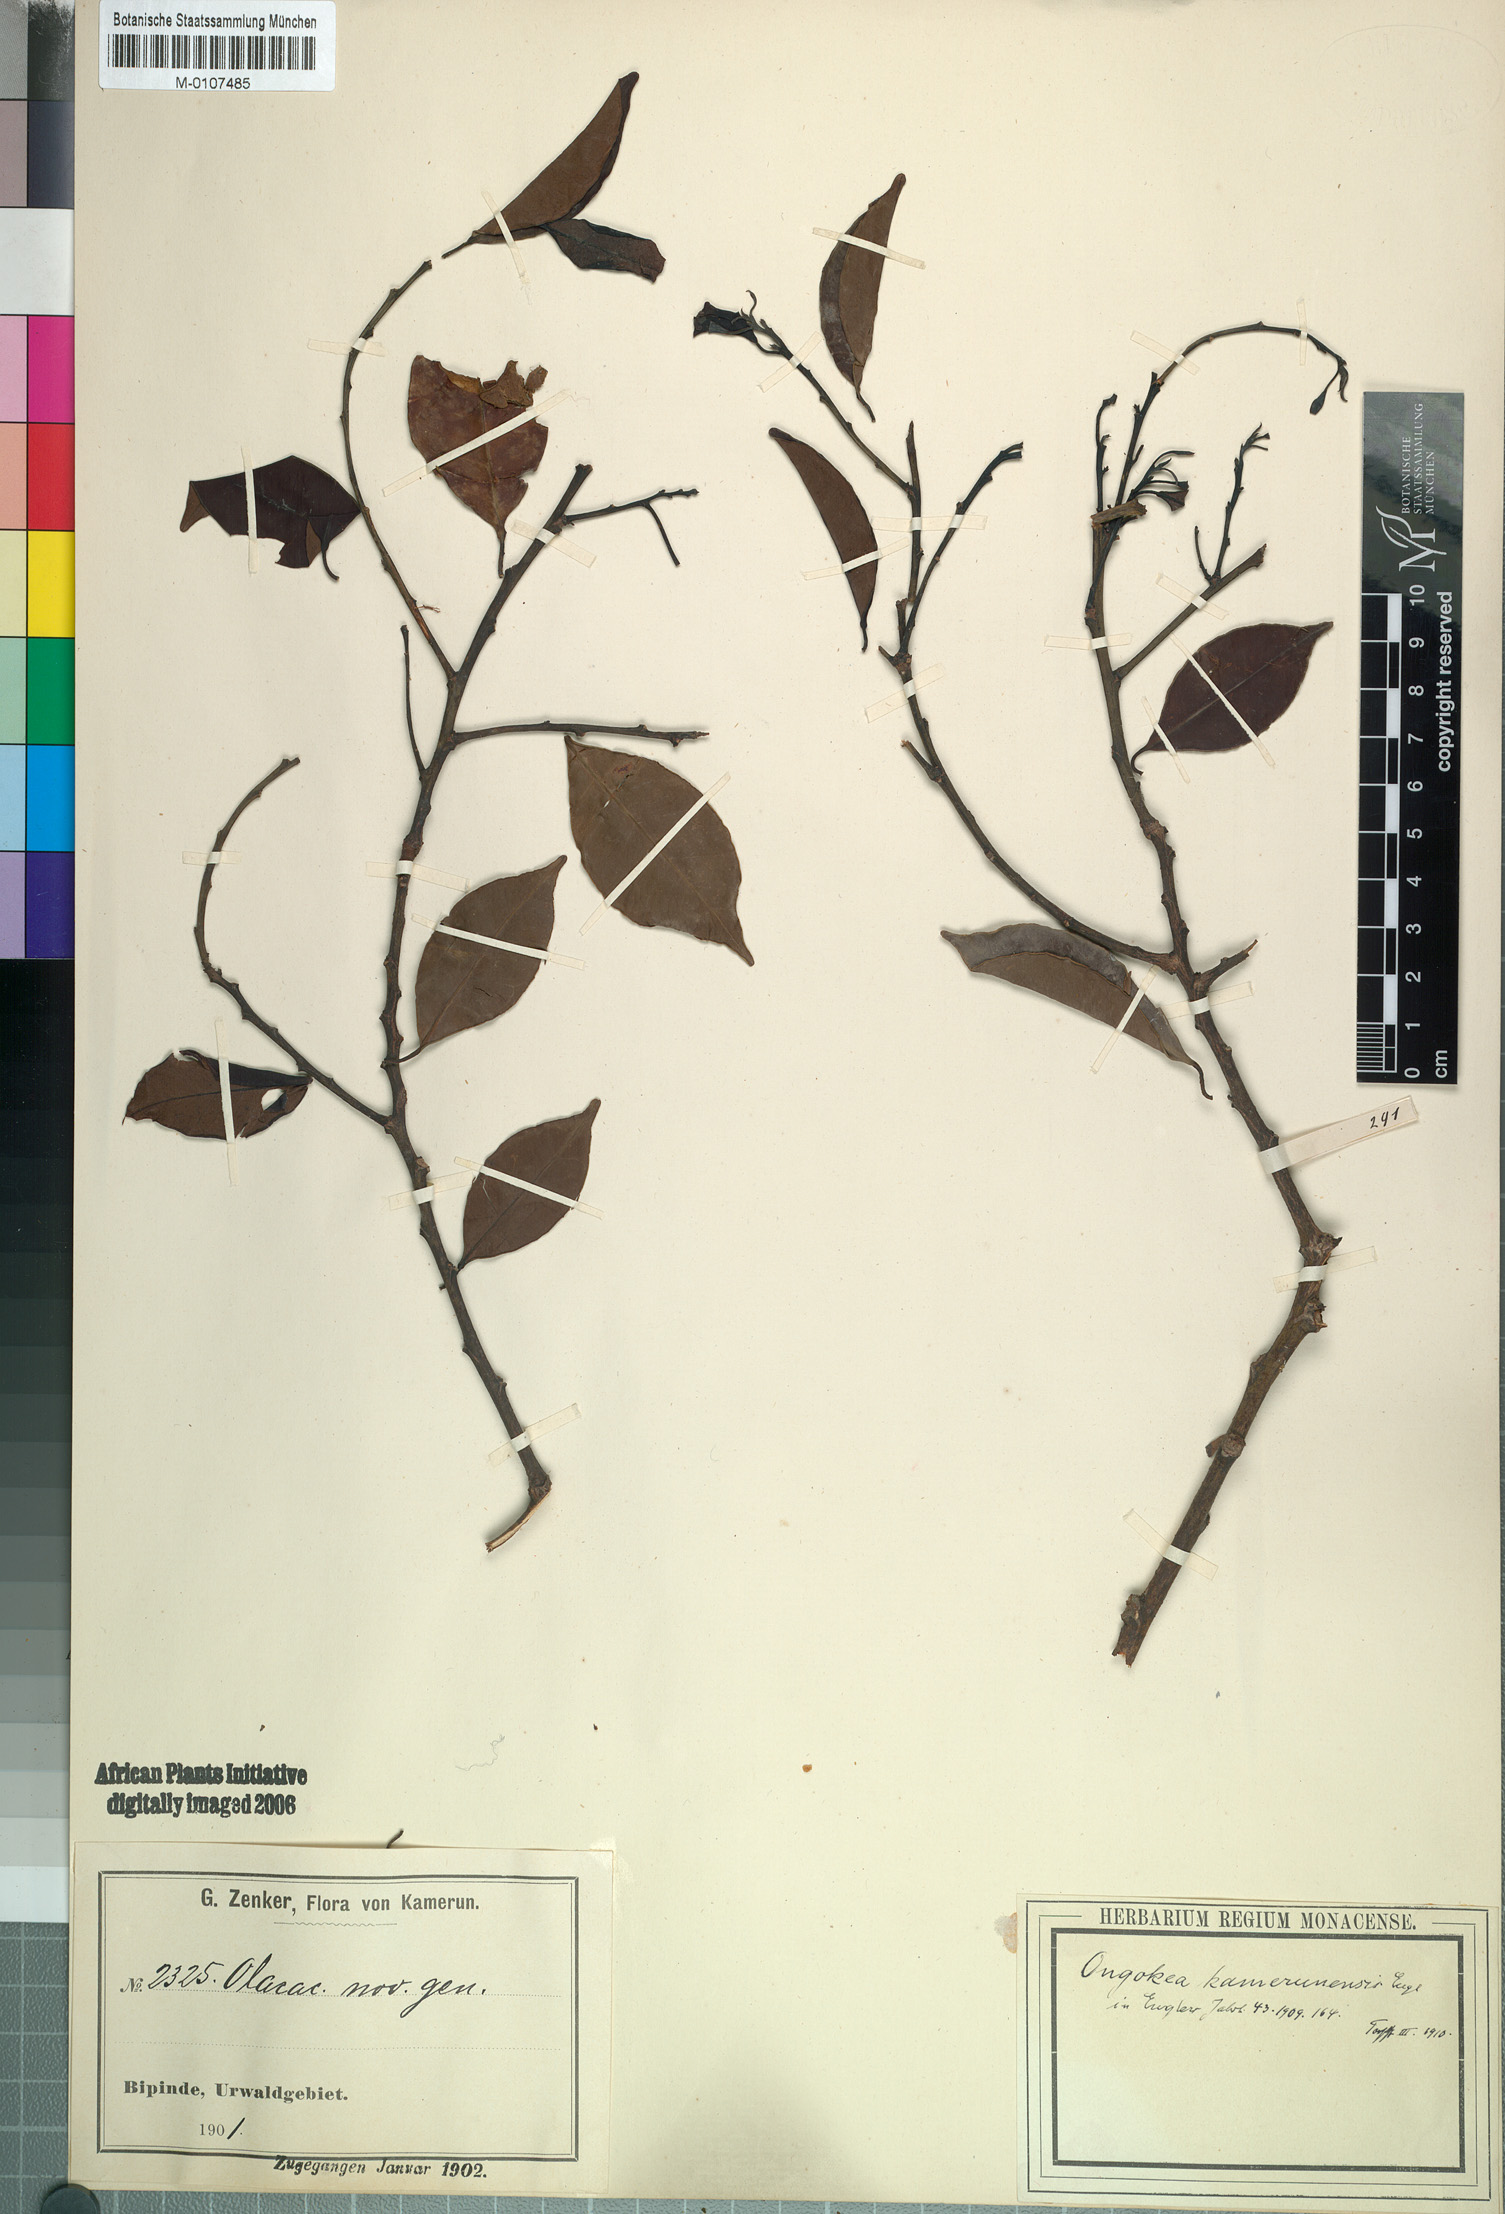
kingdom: Plantae
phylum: Tracheophyta
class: Magnoliopsida
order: Santalales
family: Aptandraceae
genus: Ongokea
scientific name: Ongokea gore
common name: Boleko-nut
